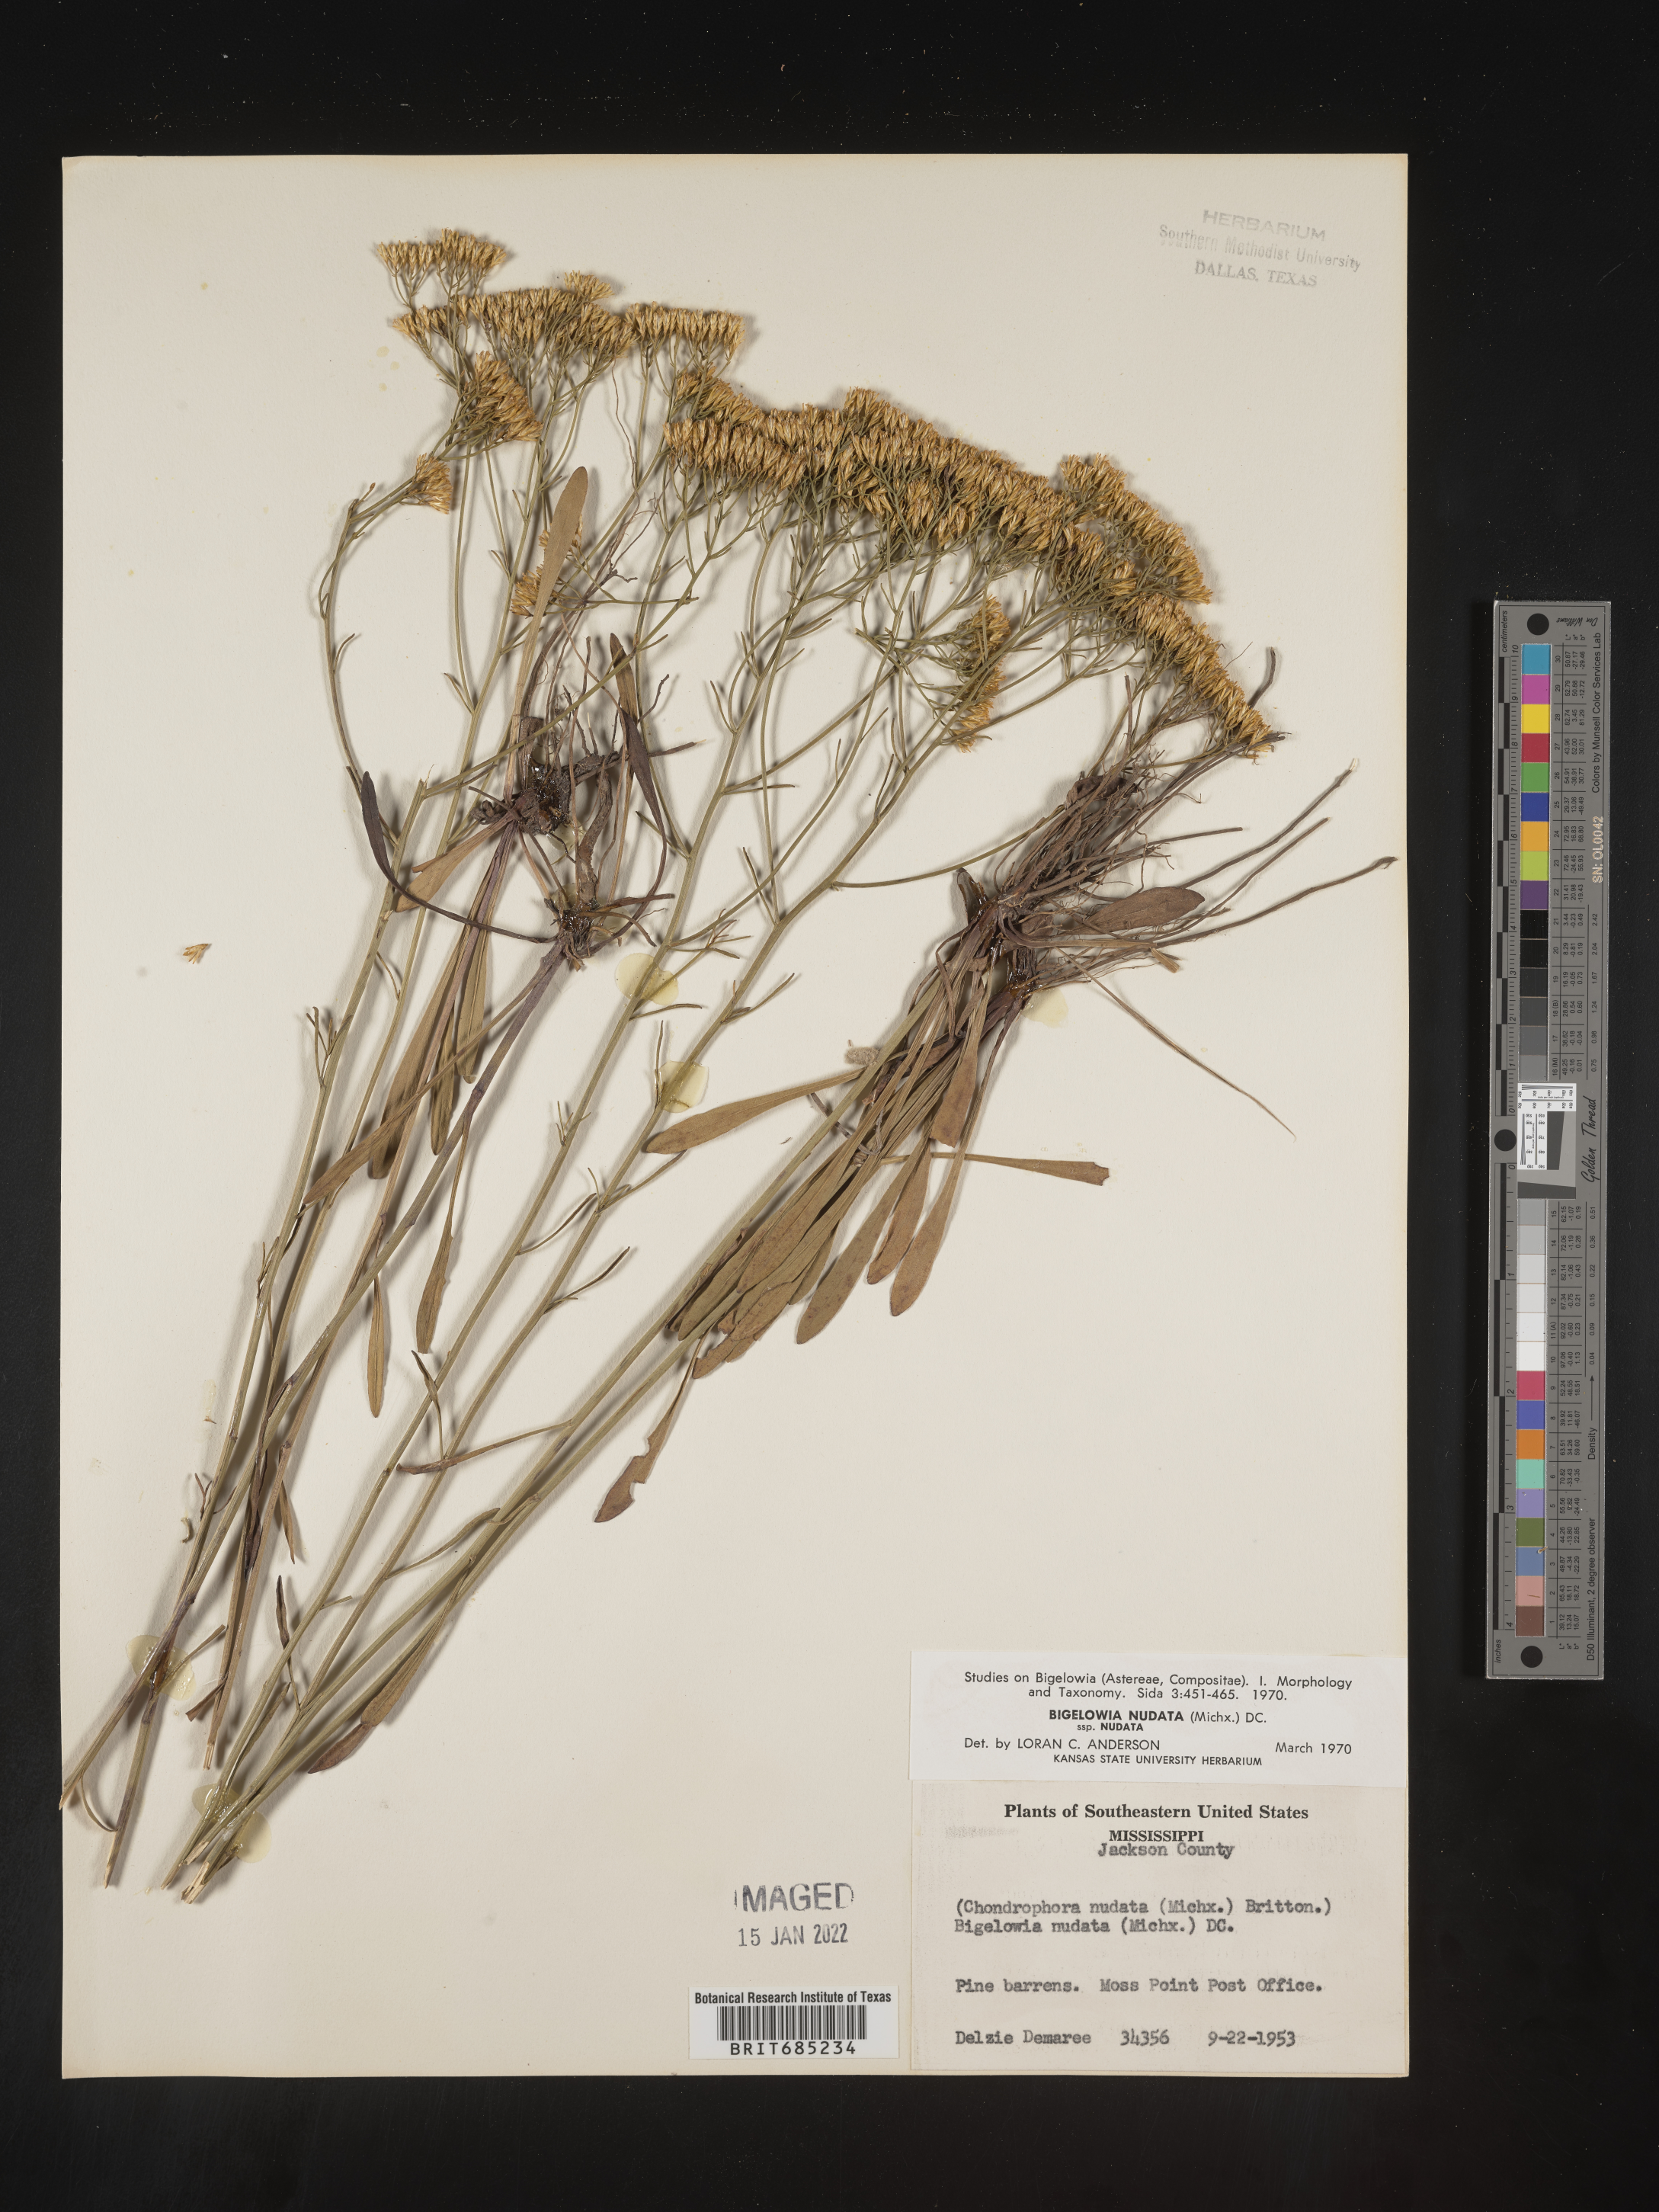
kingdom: Plantae
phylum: Tracheophyta
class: Magnoliopsida
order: Asterales
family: Asteraceae
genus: Bigelowia
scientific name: Bigelowia nudata
